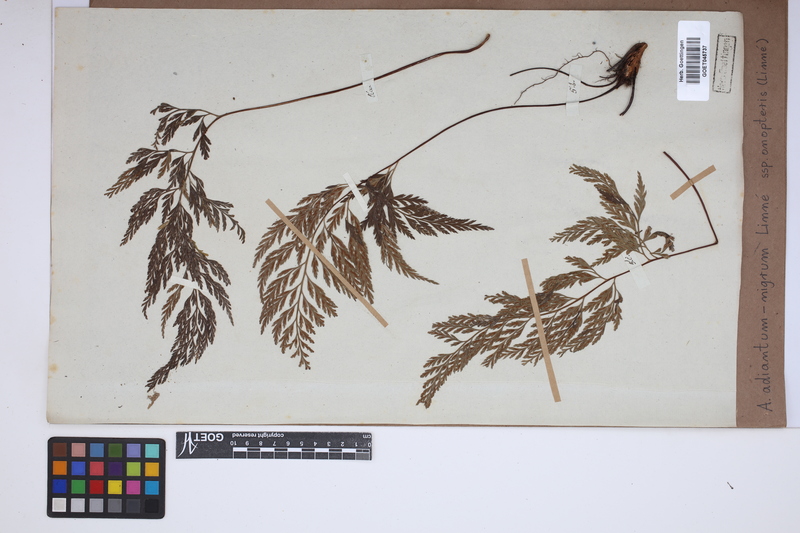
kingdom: Plantae
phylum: Tracheophyta
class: Polypodiopsida
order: Polypodiales
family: Aspleniaceae
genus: Asplenium
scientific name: Asplenium onopteris
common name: Irish spleenwort
